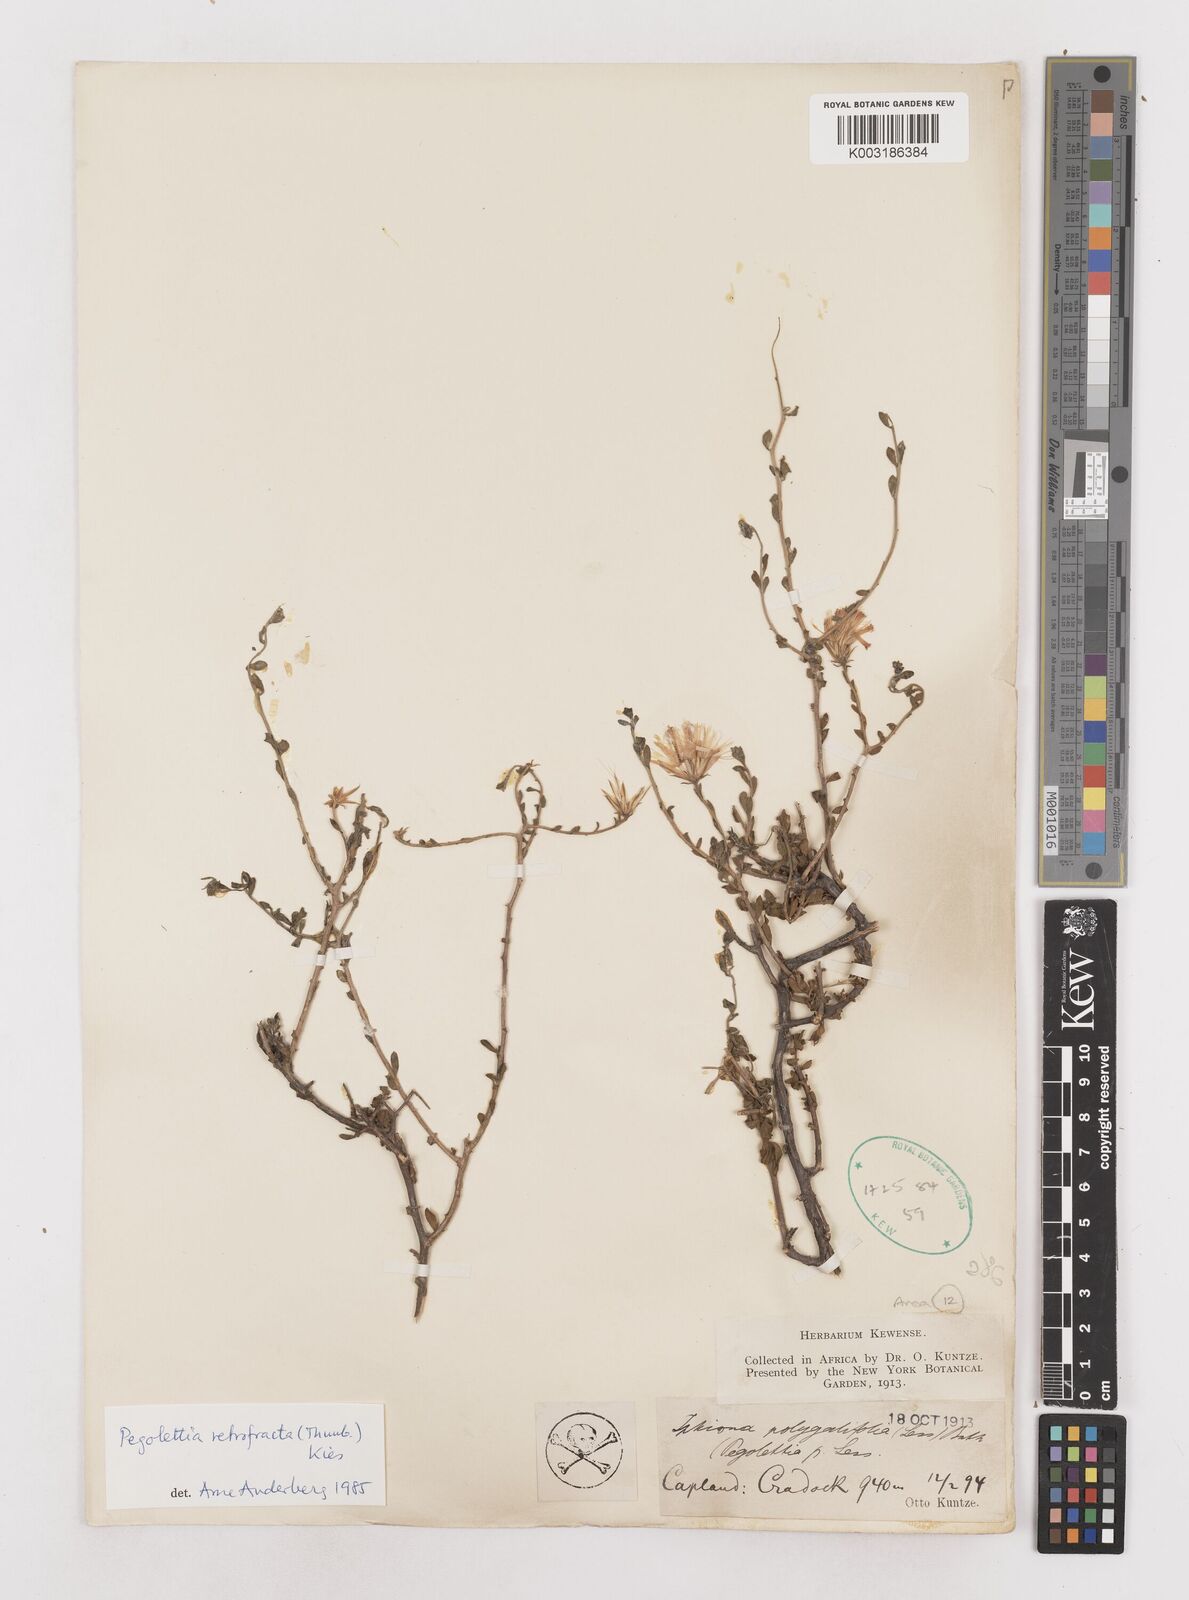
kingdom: Plantae
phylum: Tracheophyta
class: Magnoliopsida
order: Asterales
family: Asteraceae
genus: Pegolettia
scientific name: Pegolettia retrofracta
